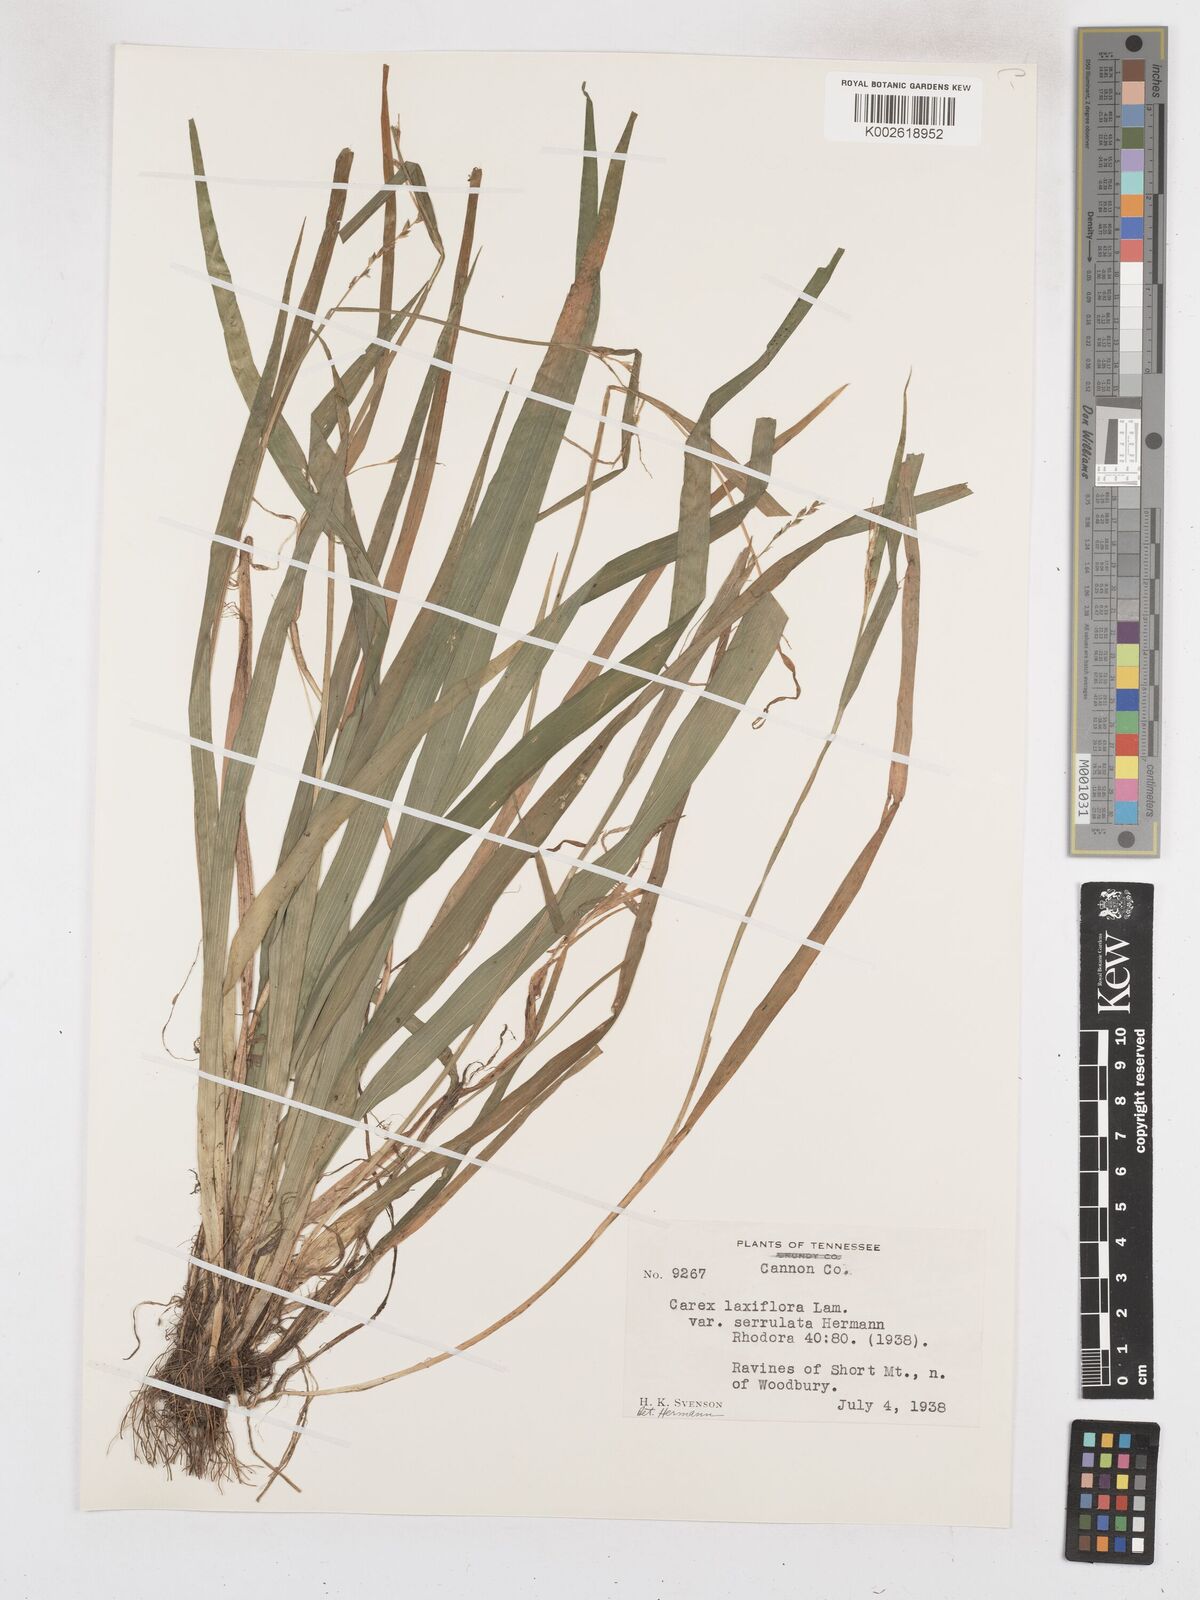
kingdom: Plantae
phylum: Tracheophyta
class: Liliopsida
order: Poales
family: Cyperaceae
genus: Carex
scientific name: Carex laxiflora
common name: Beech wood sedge
